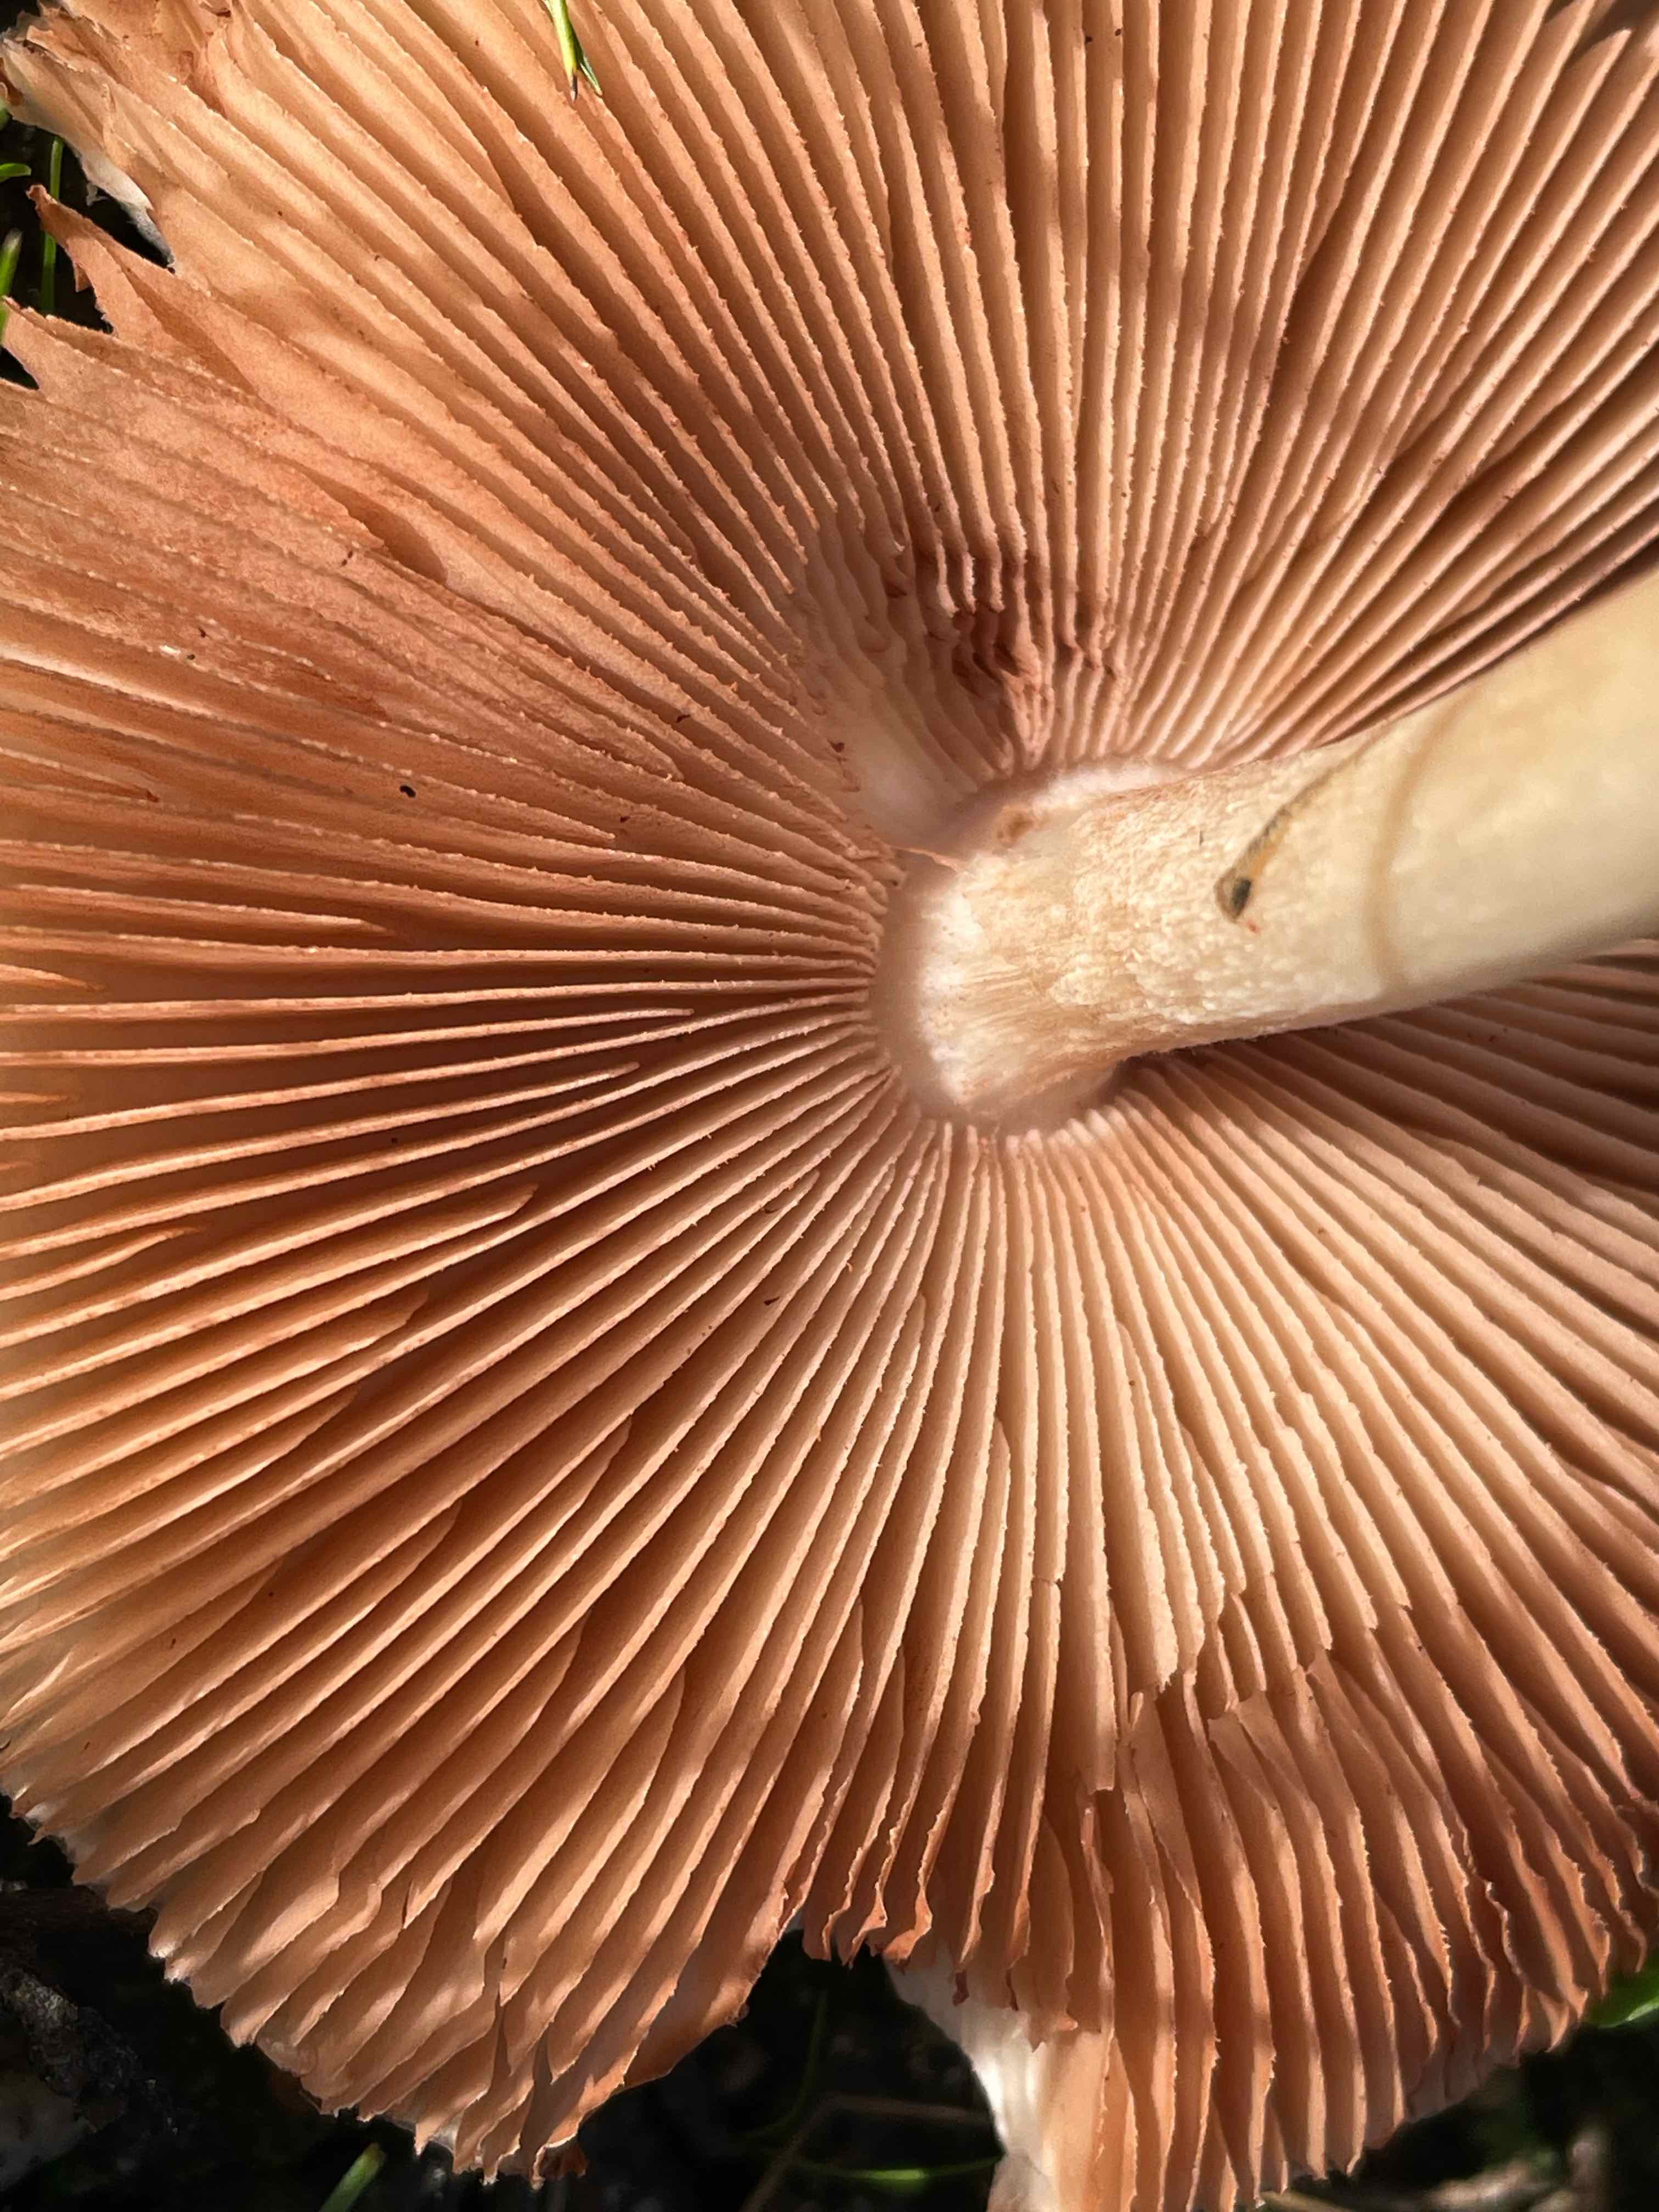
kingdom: Fungi
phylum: Basidiomycota
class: Agaricomycetes
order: Agaricales
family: Pluteaceae
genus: Volvopluteus
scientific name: Volvopluteus gloiocephalus
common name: høj posesvamp
